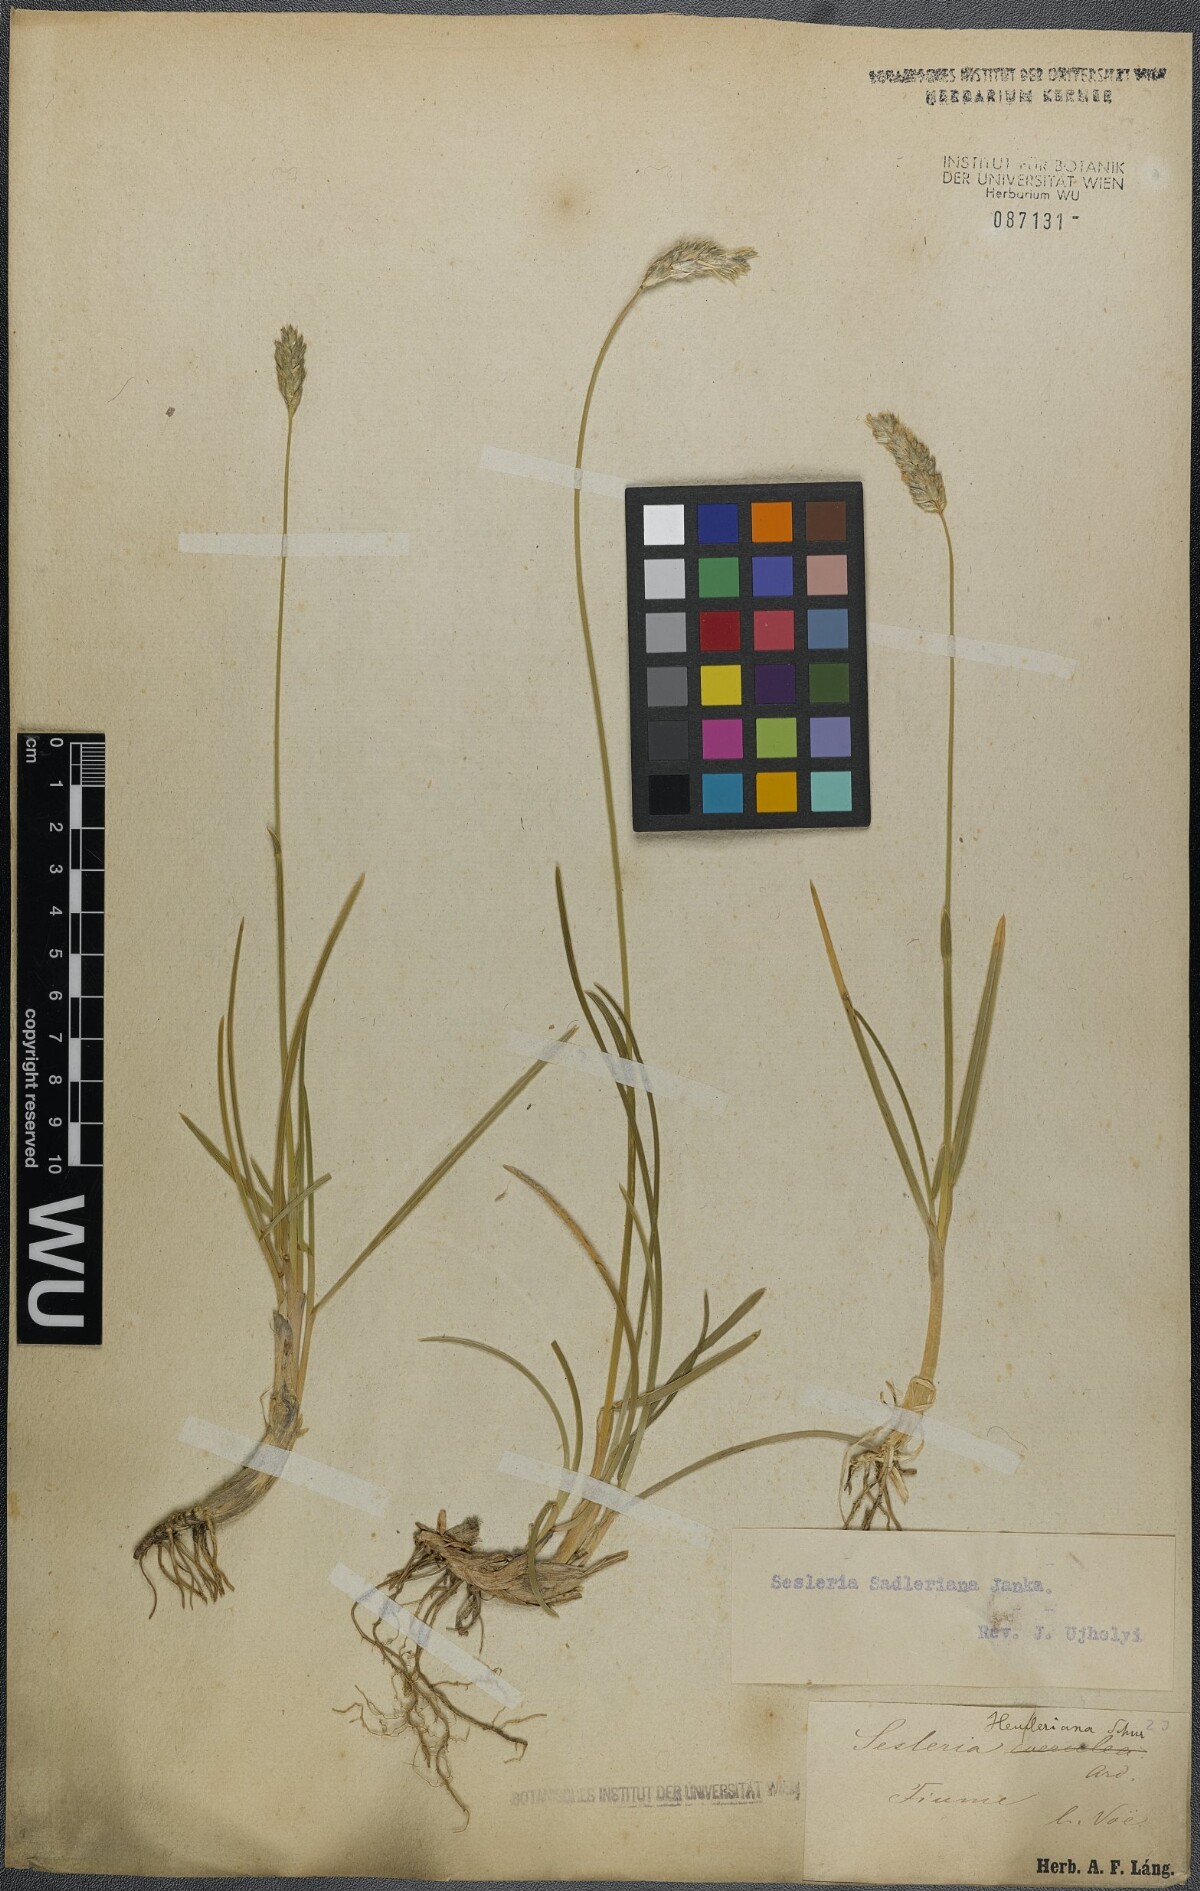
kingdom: Plantae
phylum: Tracheophyta
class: Liliopsida
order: Poales
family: Poaceae
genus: Sesleria
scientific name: Sesleria sadleriana
